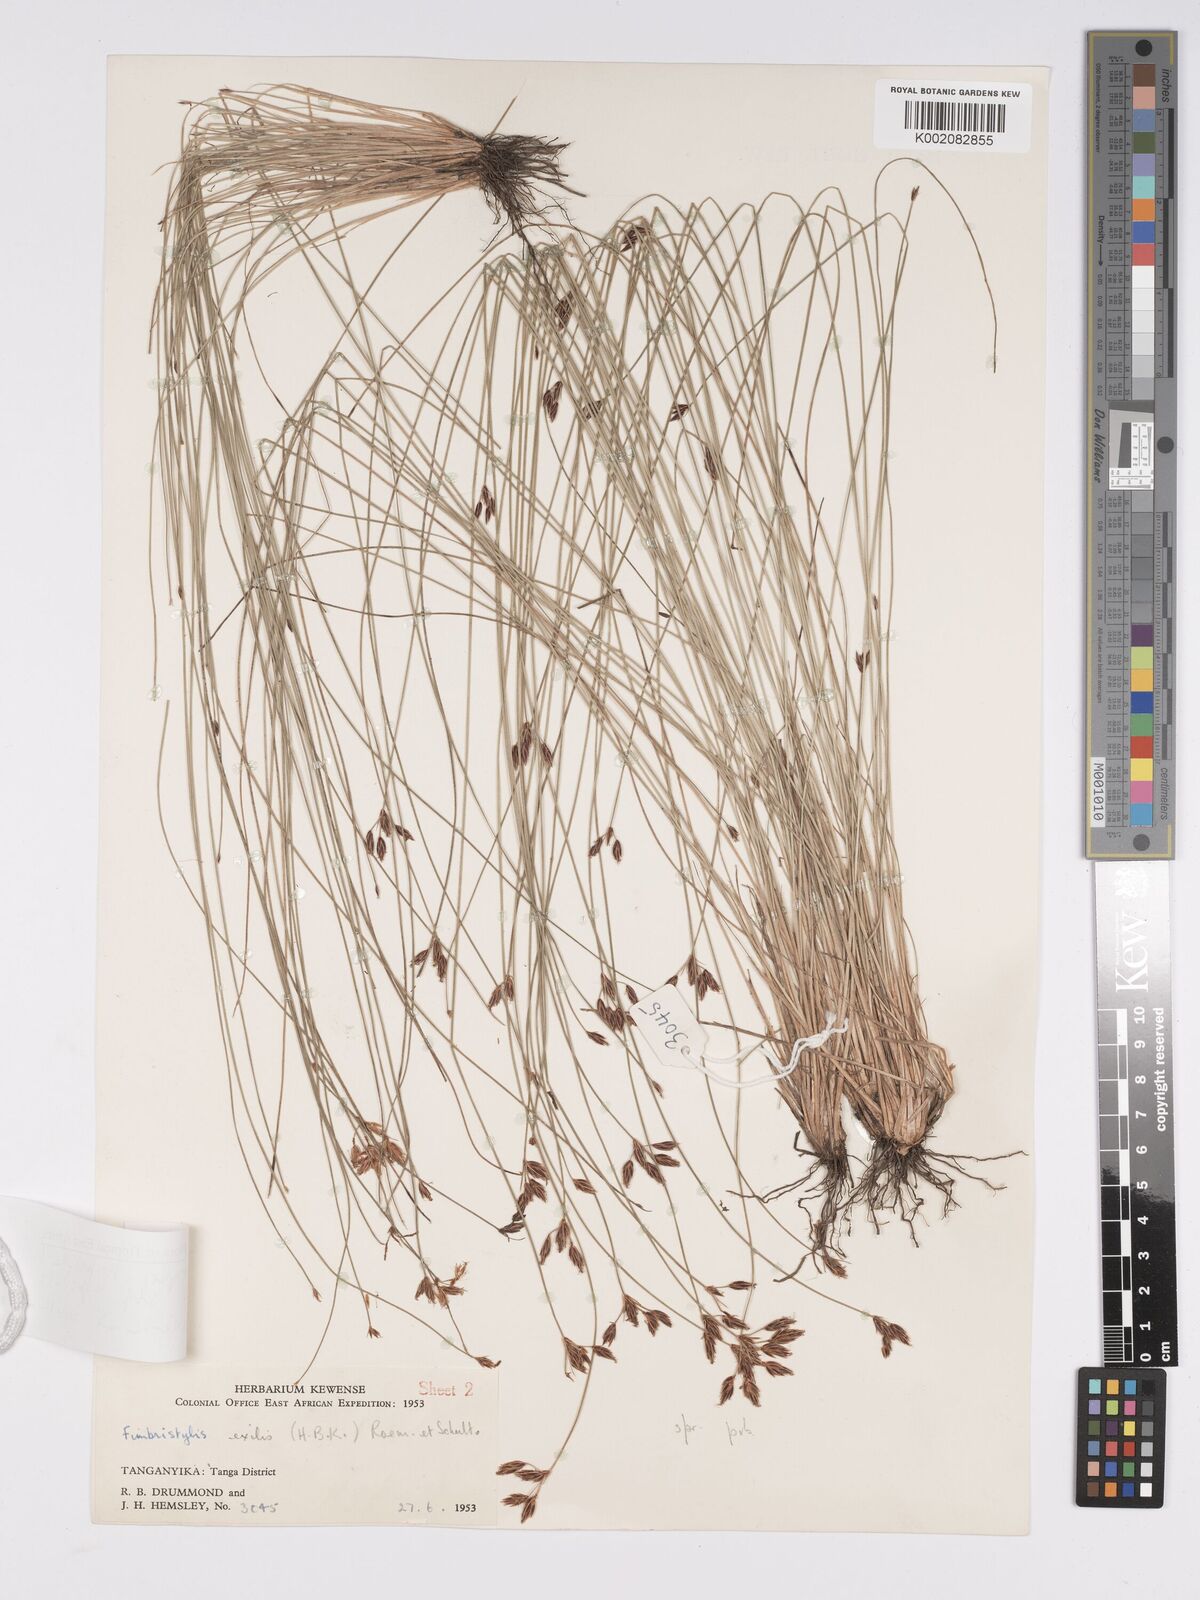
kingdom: Plantae
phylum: Tracheophyta
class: Liliopsida
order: Poales
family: Cyperaceae
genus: Bulbostylis
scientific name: Bulbostylis hispidula
